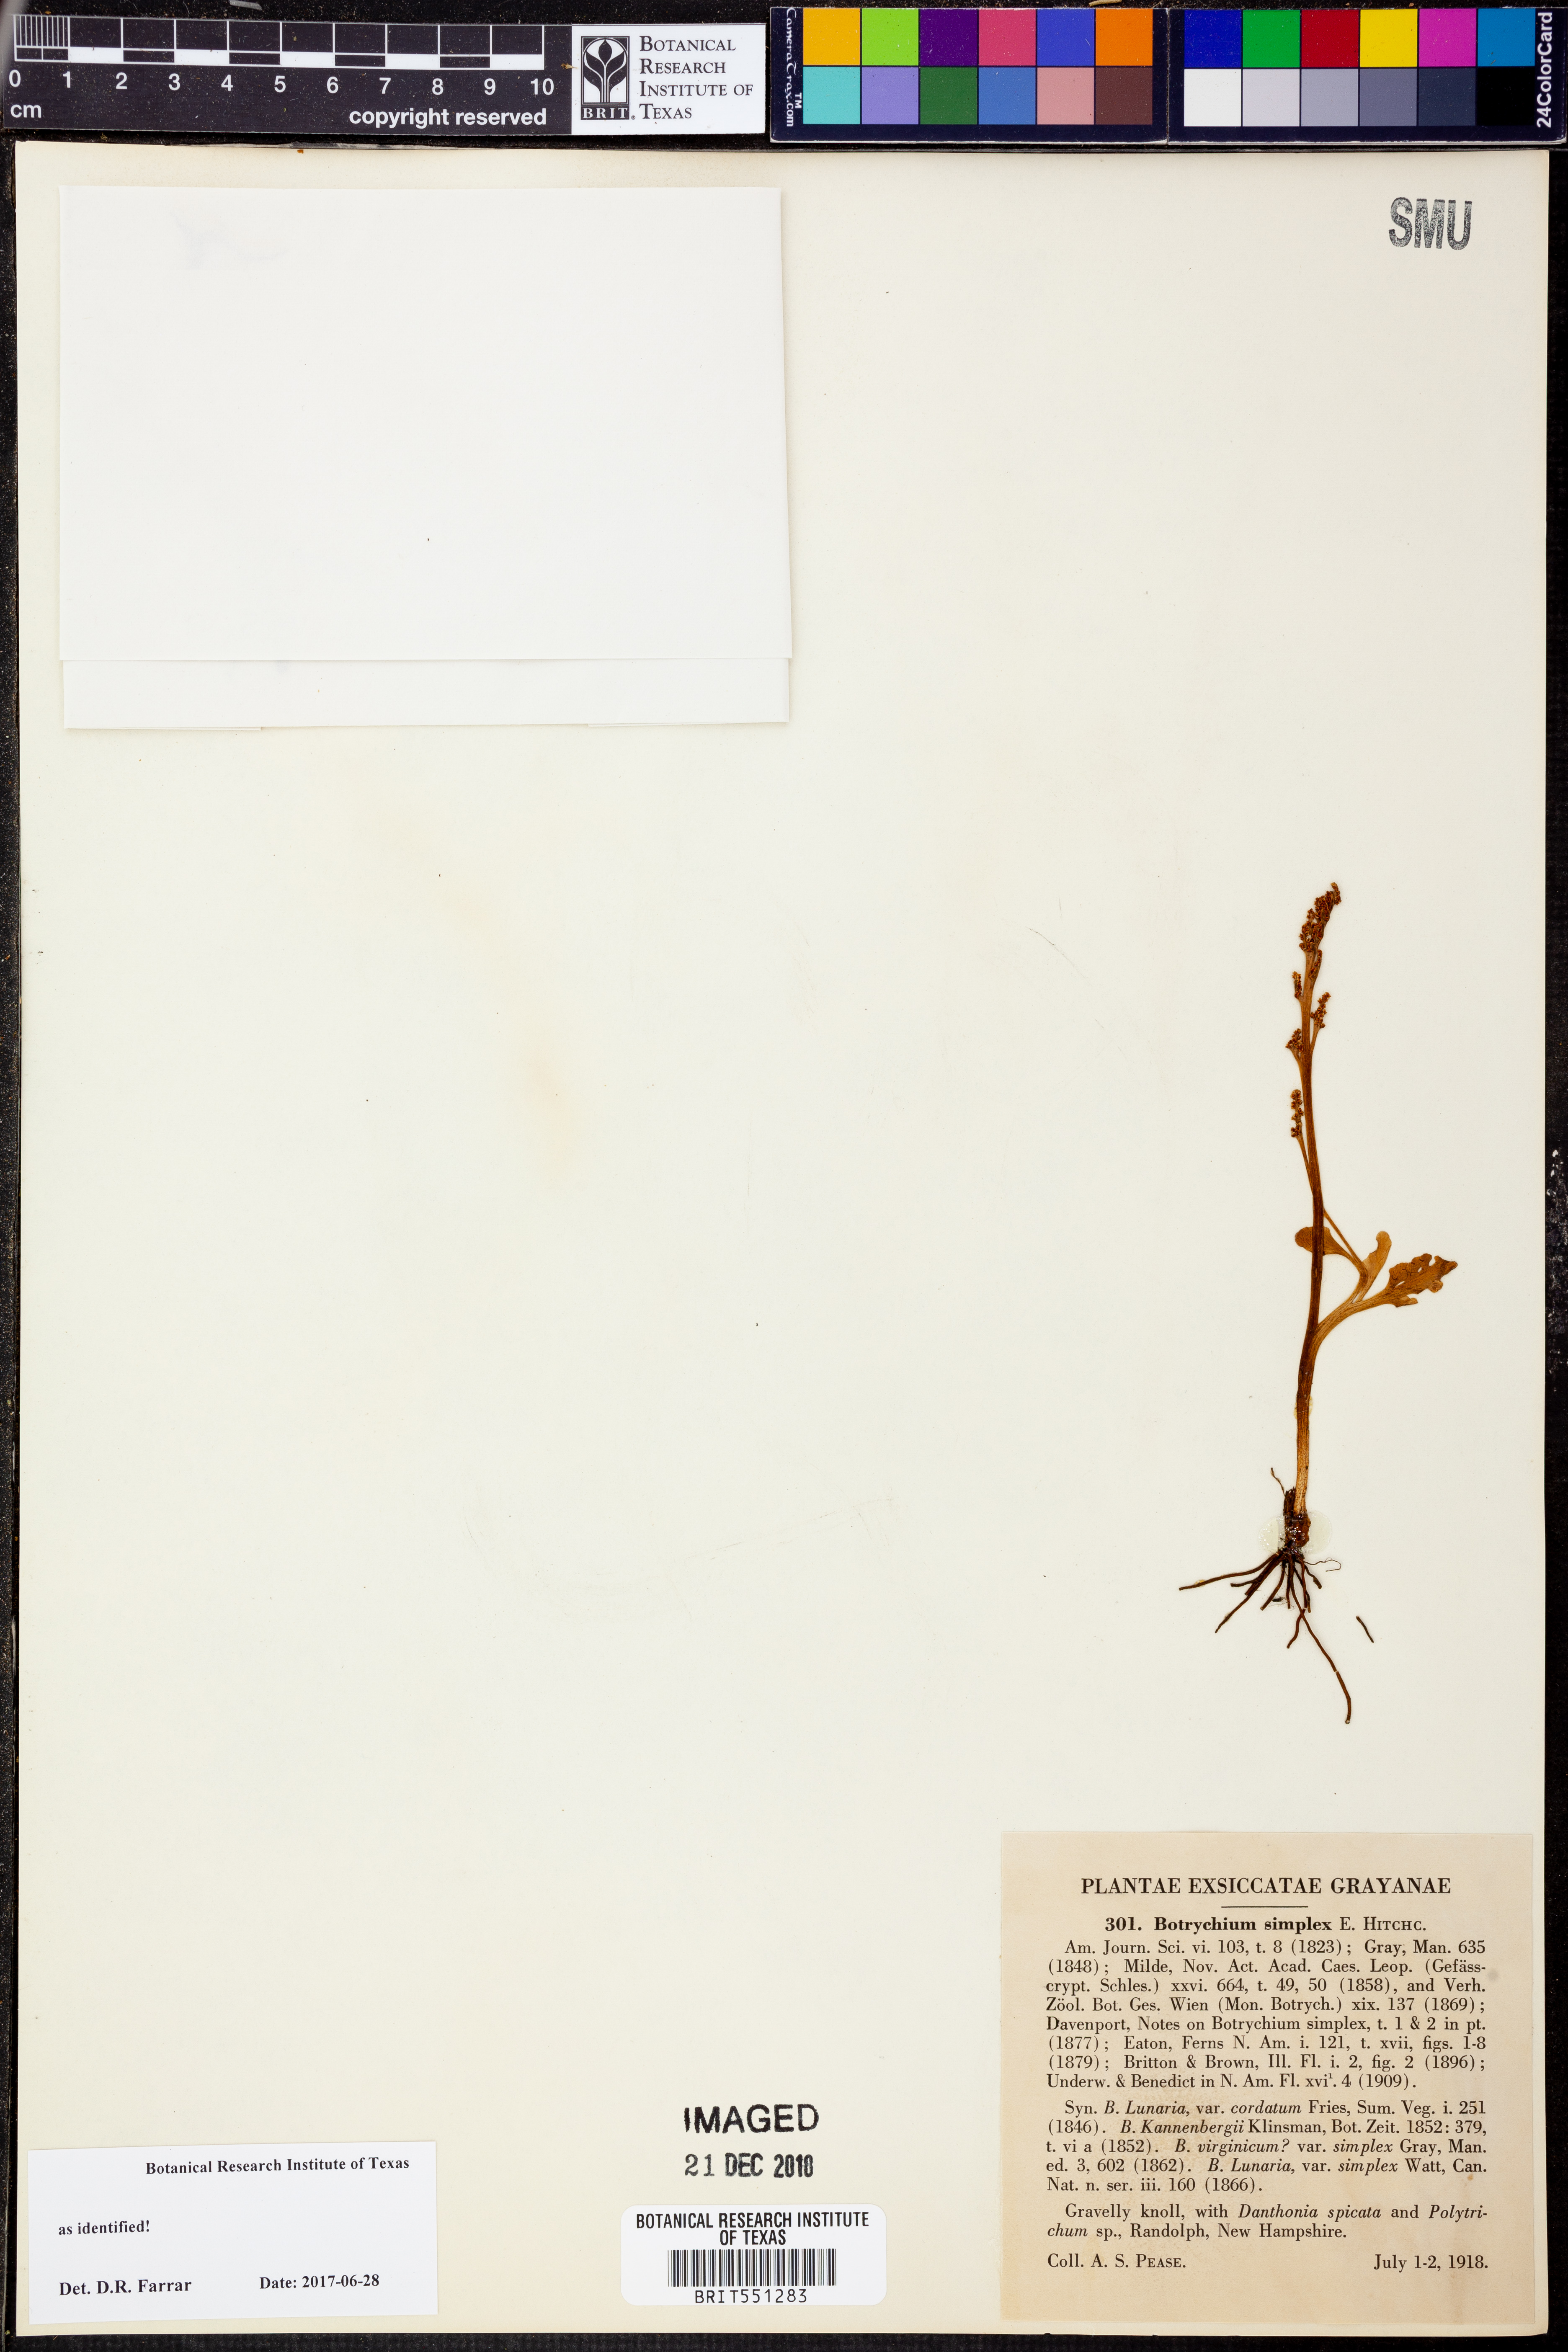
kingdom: Plantae
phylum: Tracheophyta
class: Polypodiopsida
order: Ophioglossales
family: Ophioglossaceae
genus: Botrychium
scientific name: Botrychium simplex
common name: Least moonwort
